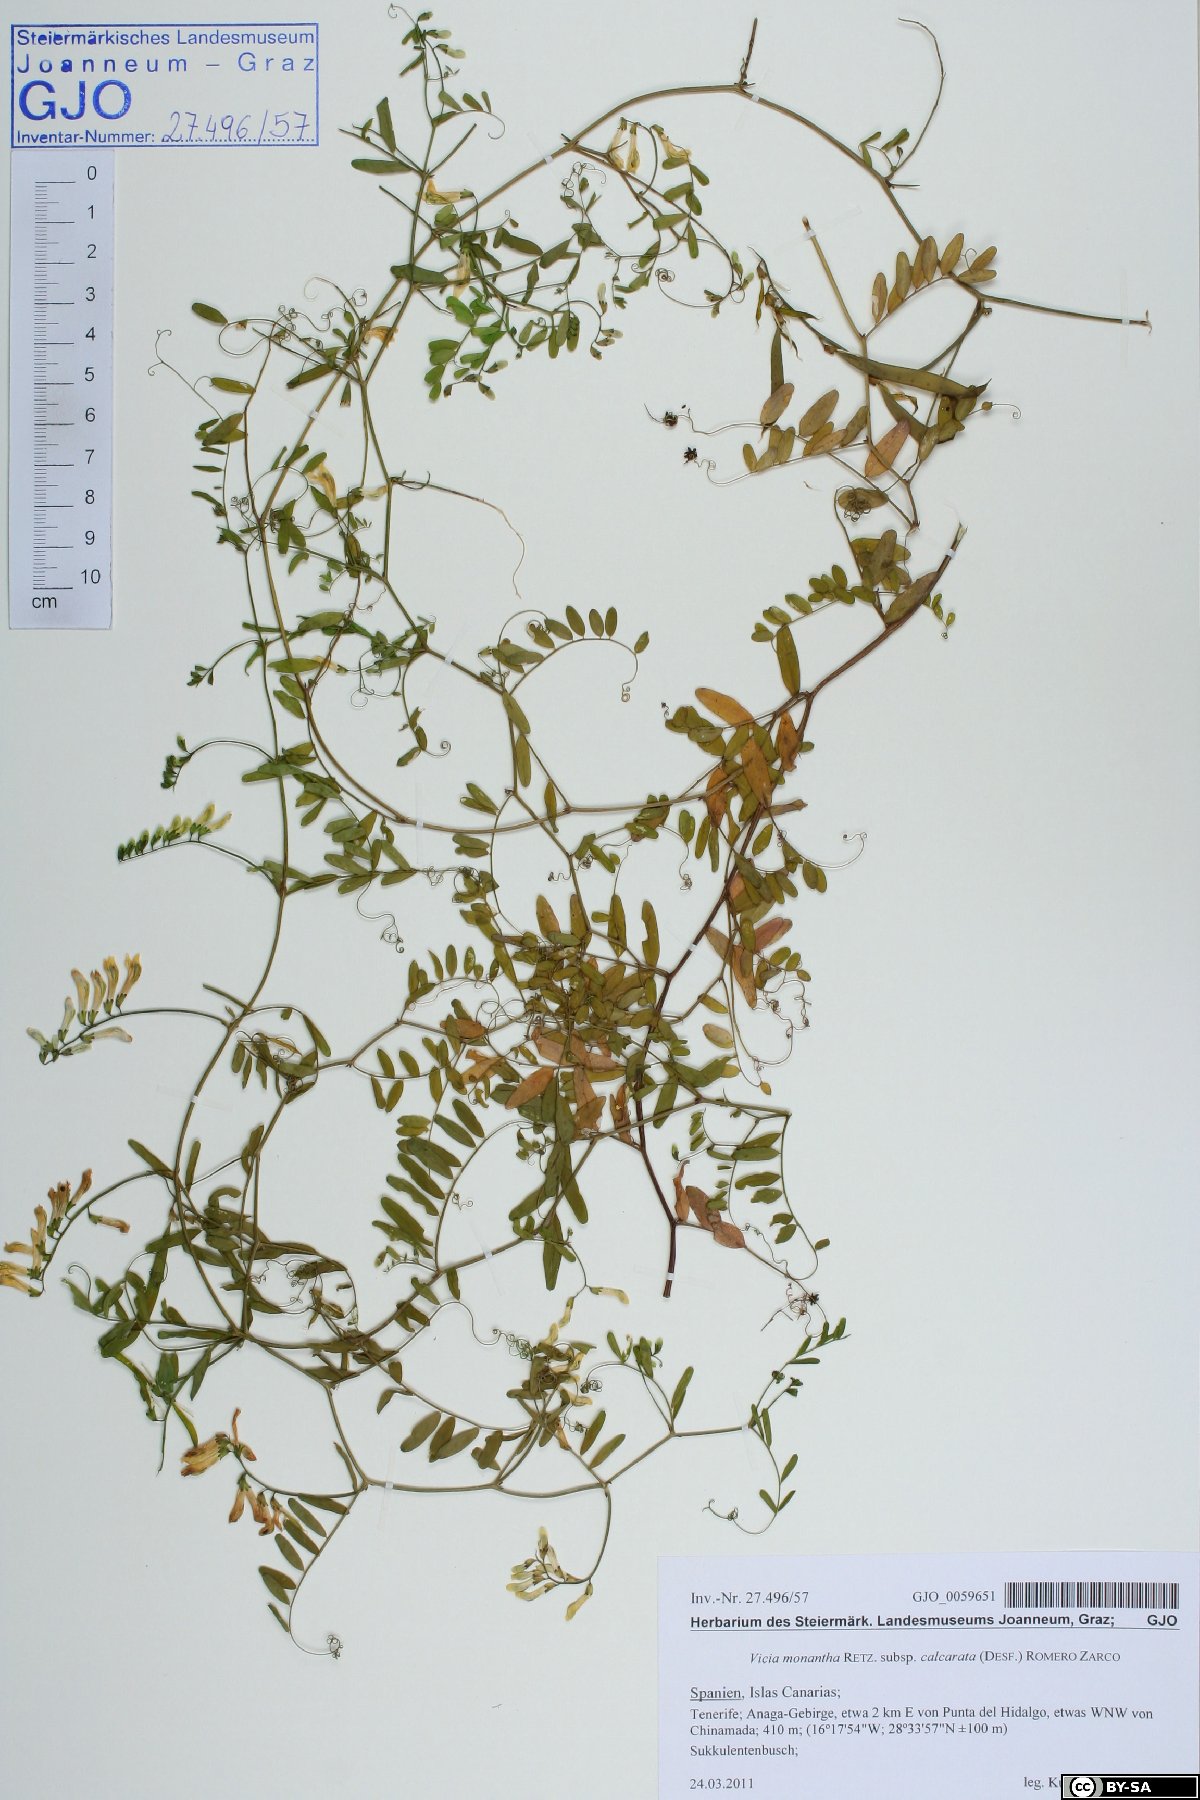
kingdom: Plantae
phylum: Tracheophyta
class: Magnoliopsida
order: Fabales
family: Fabaceae
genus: Vicia
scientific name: Vicia monantha
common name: Barn vetch
